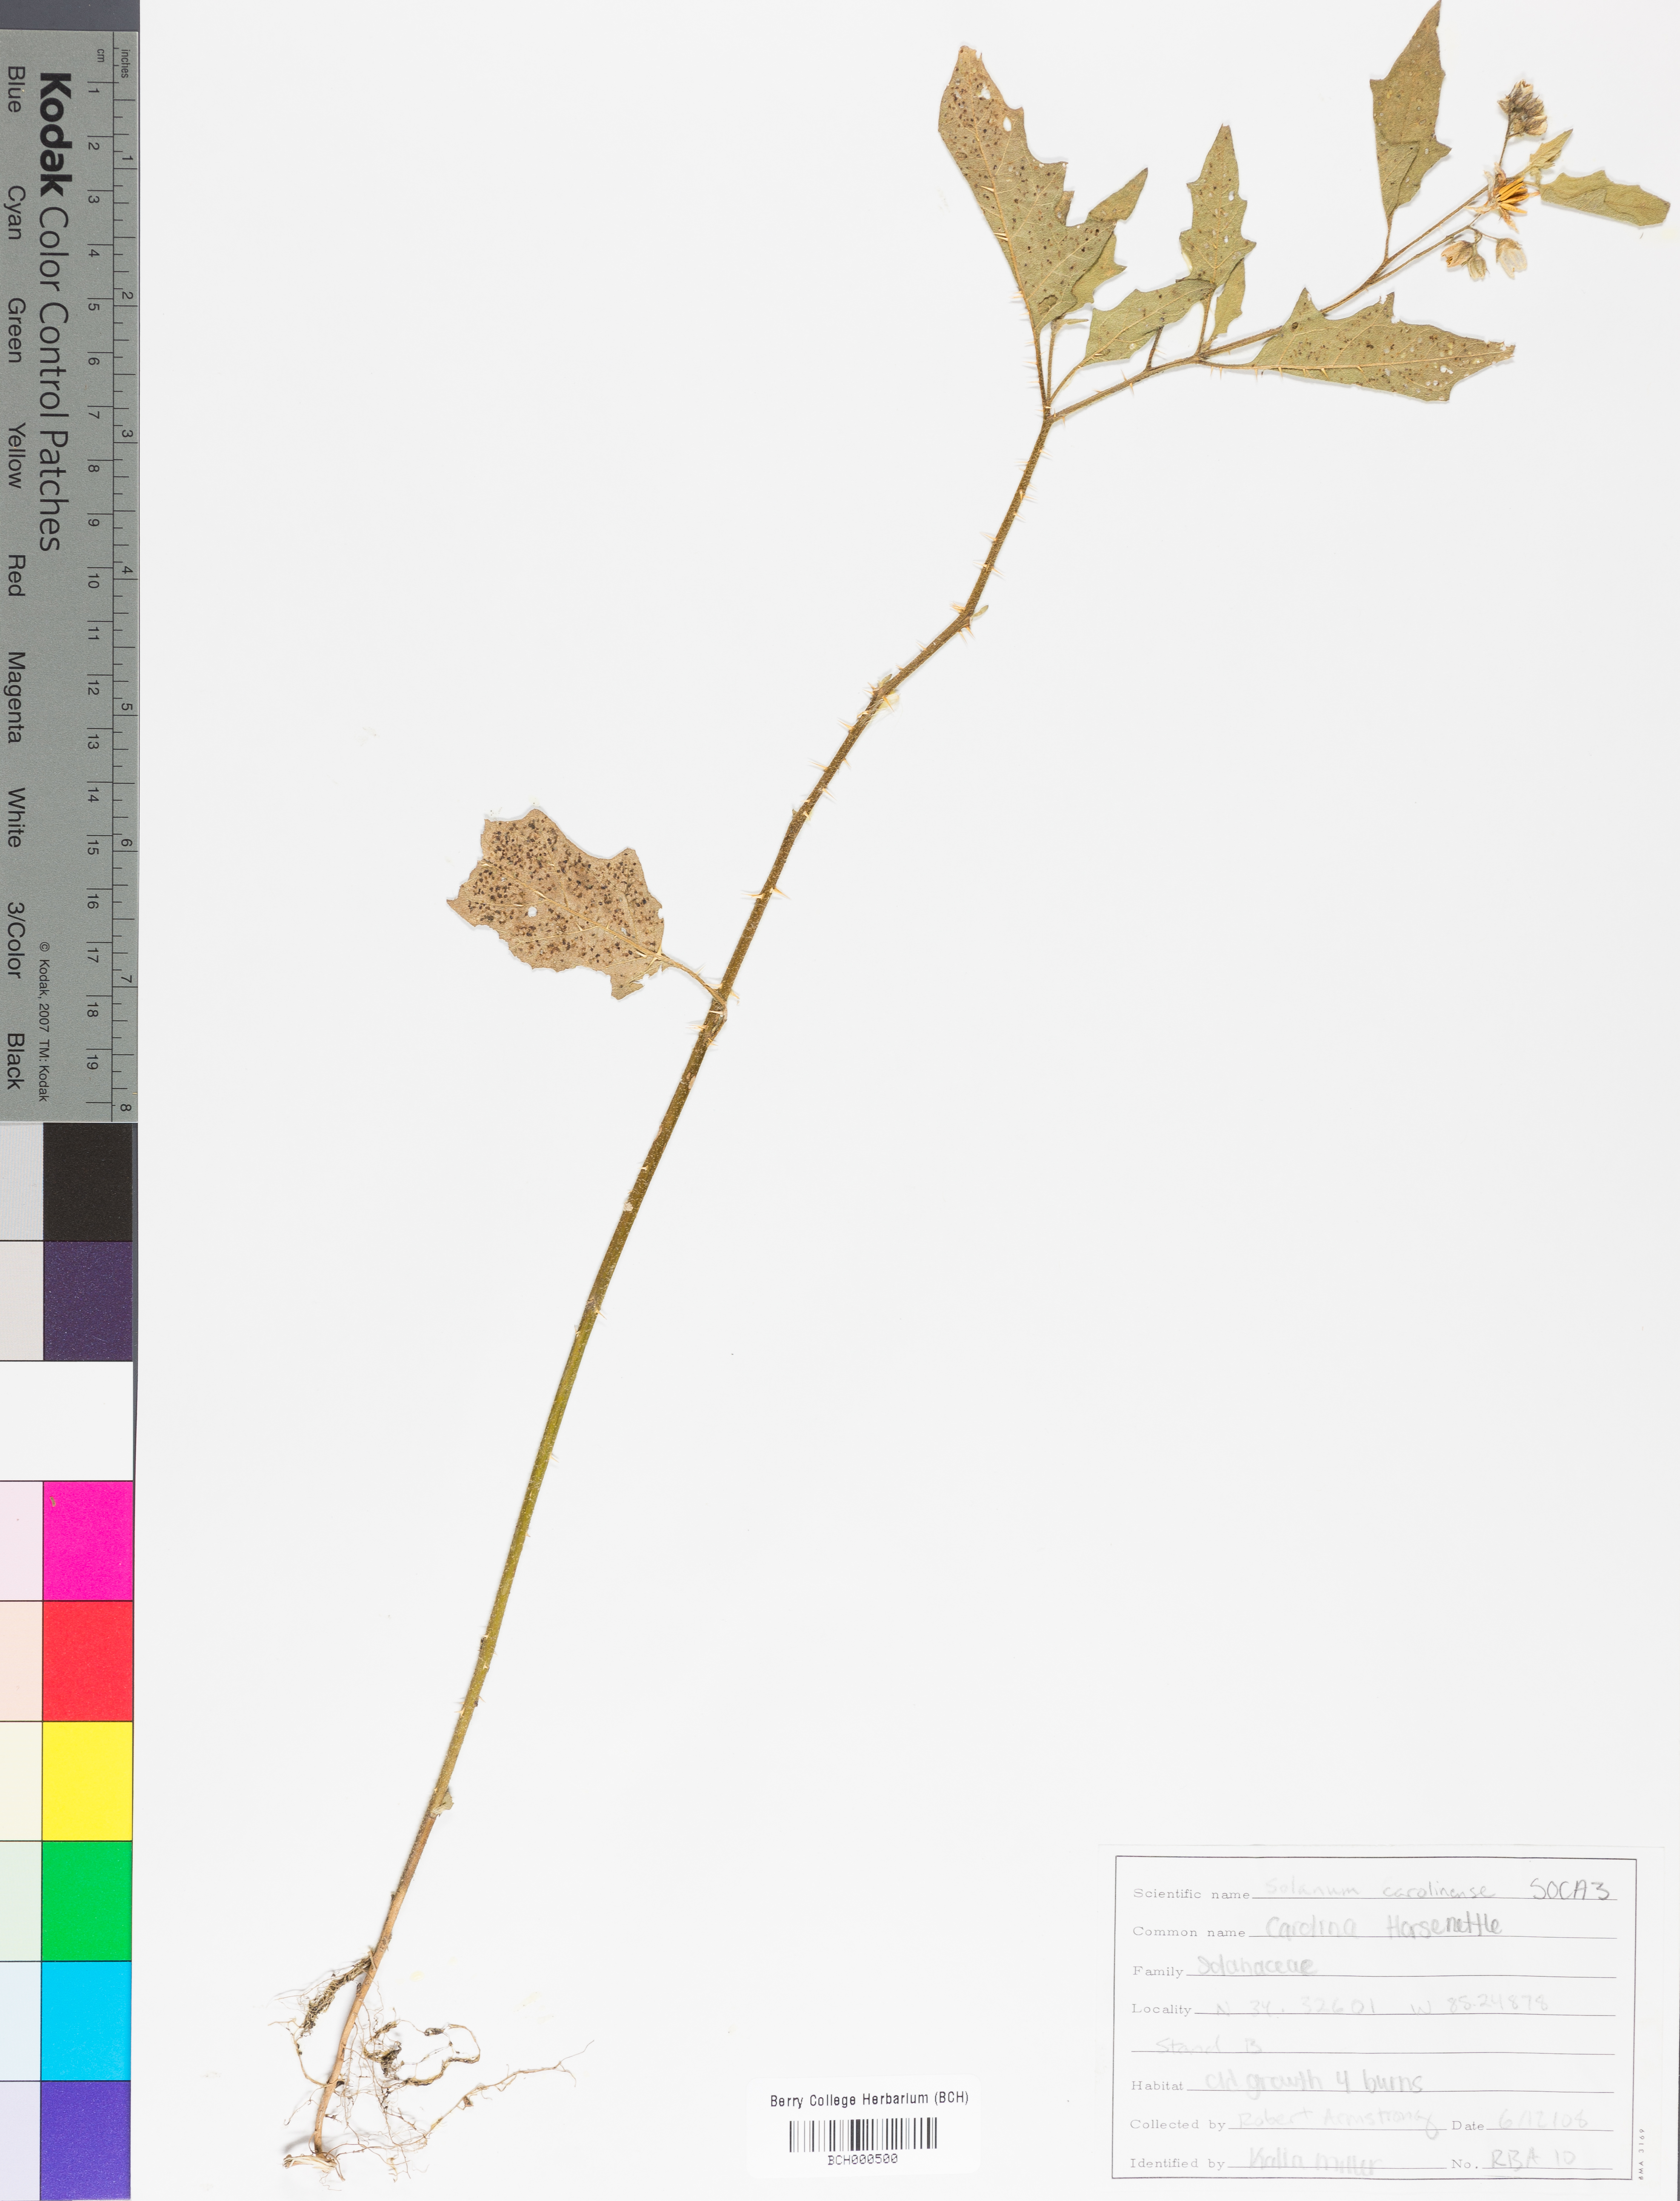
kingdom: Plantae
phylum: Tracheophyta
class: Magnoliopsida
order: Solanales
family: Solanaceae
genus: Solanum
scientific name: Solanum carolinense
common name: Horse-nettle
